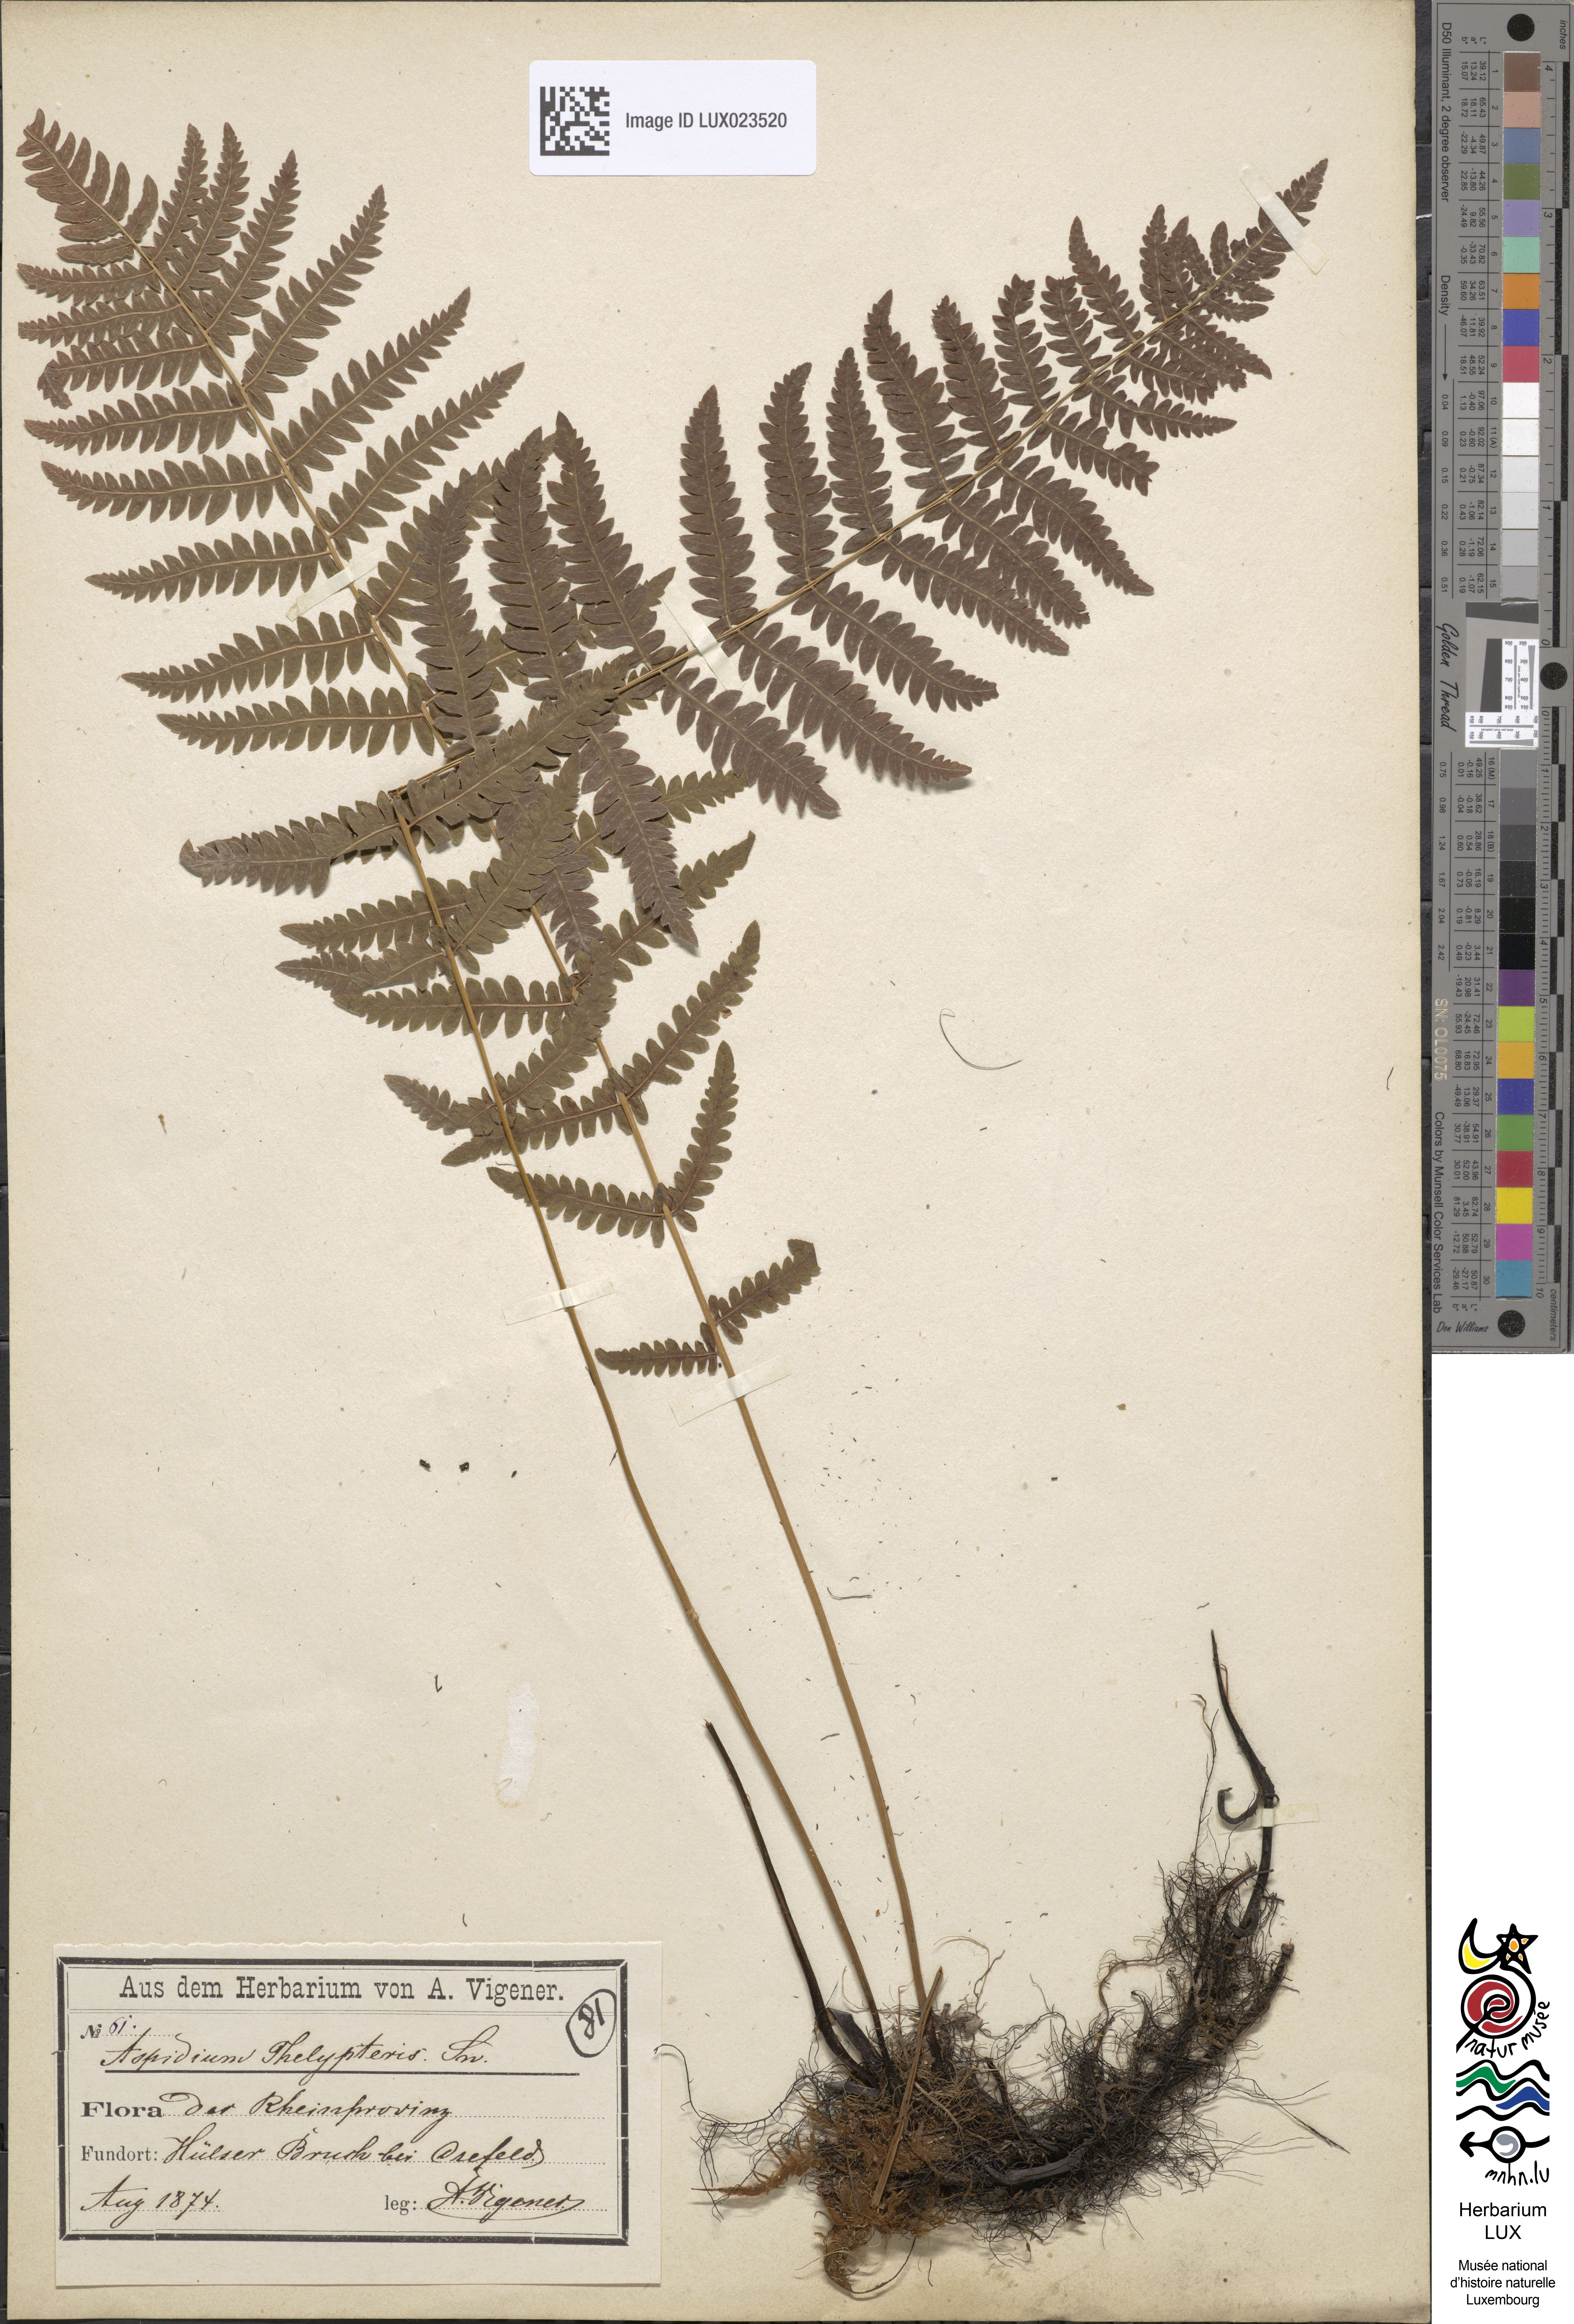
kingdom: Plantae
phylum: Tracheophyta
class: Polypodiopsida
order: Polypodiales
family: Thelypteridaceae
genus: Thelypteris
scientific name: Thelypteris palustris
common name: Marsh fern
